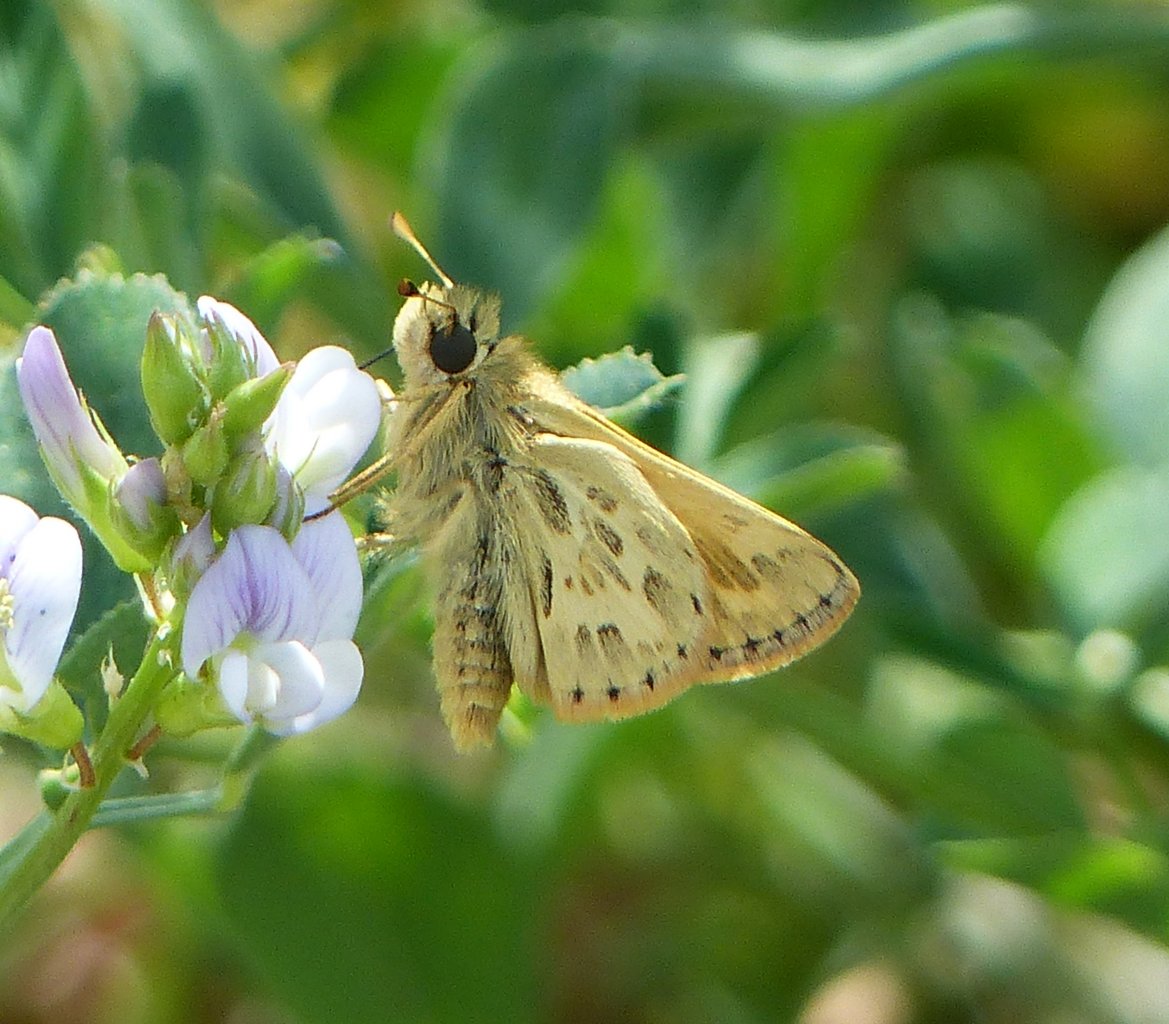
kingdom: Animalia
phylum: Arthropoda
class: Insecta
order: Lepidoptera
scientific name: Lepidoptera
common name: Butterflies
